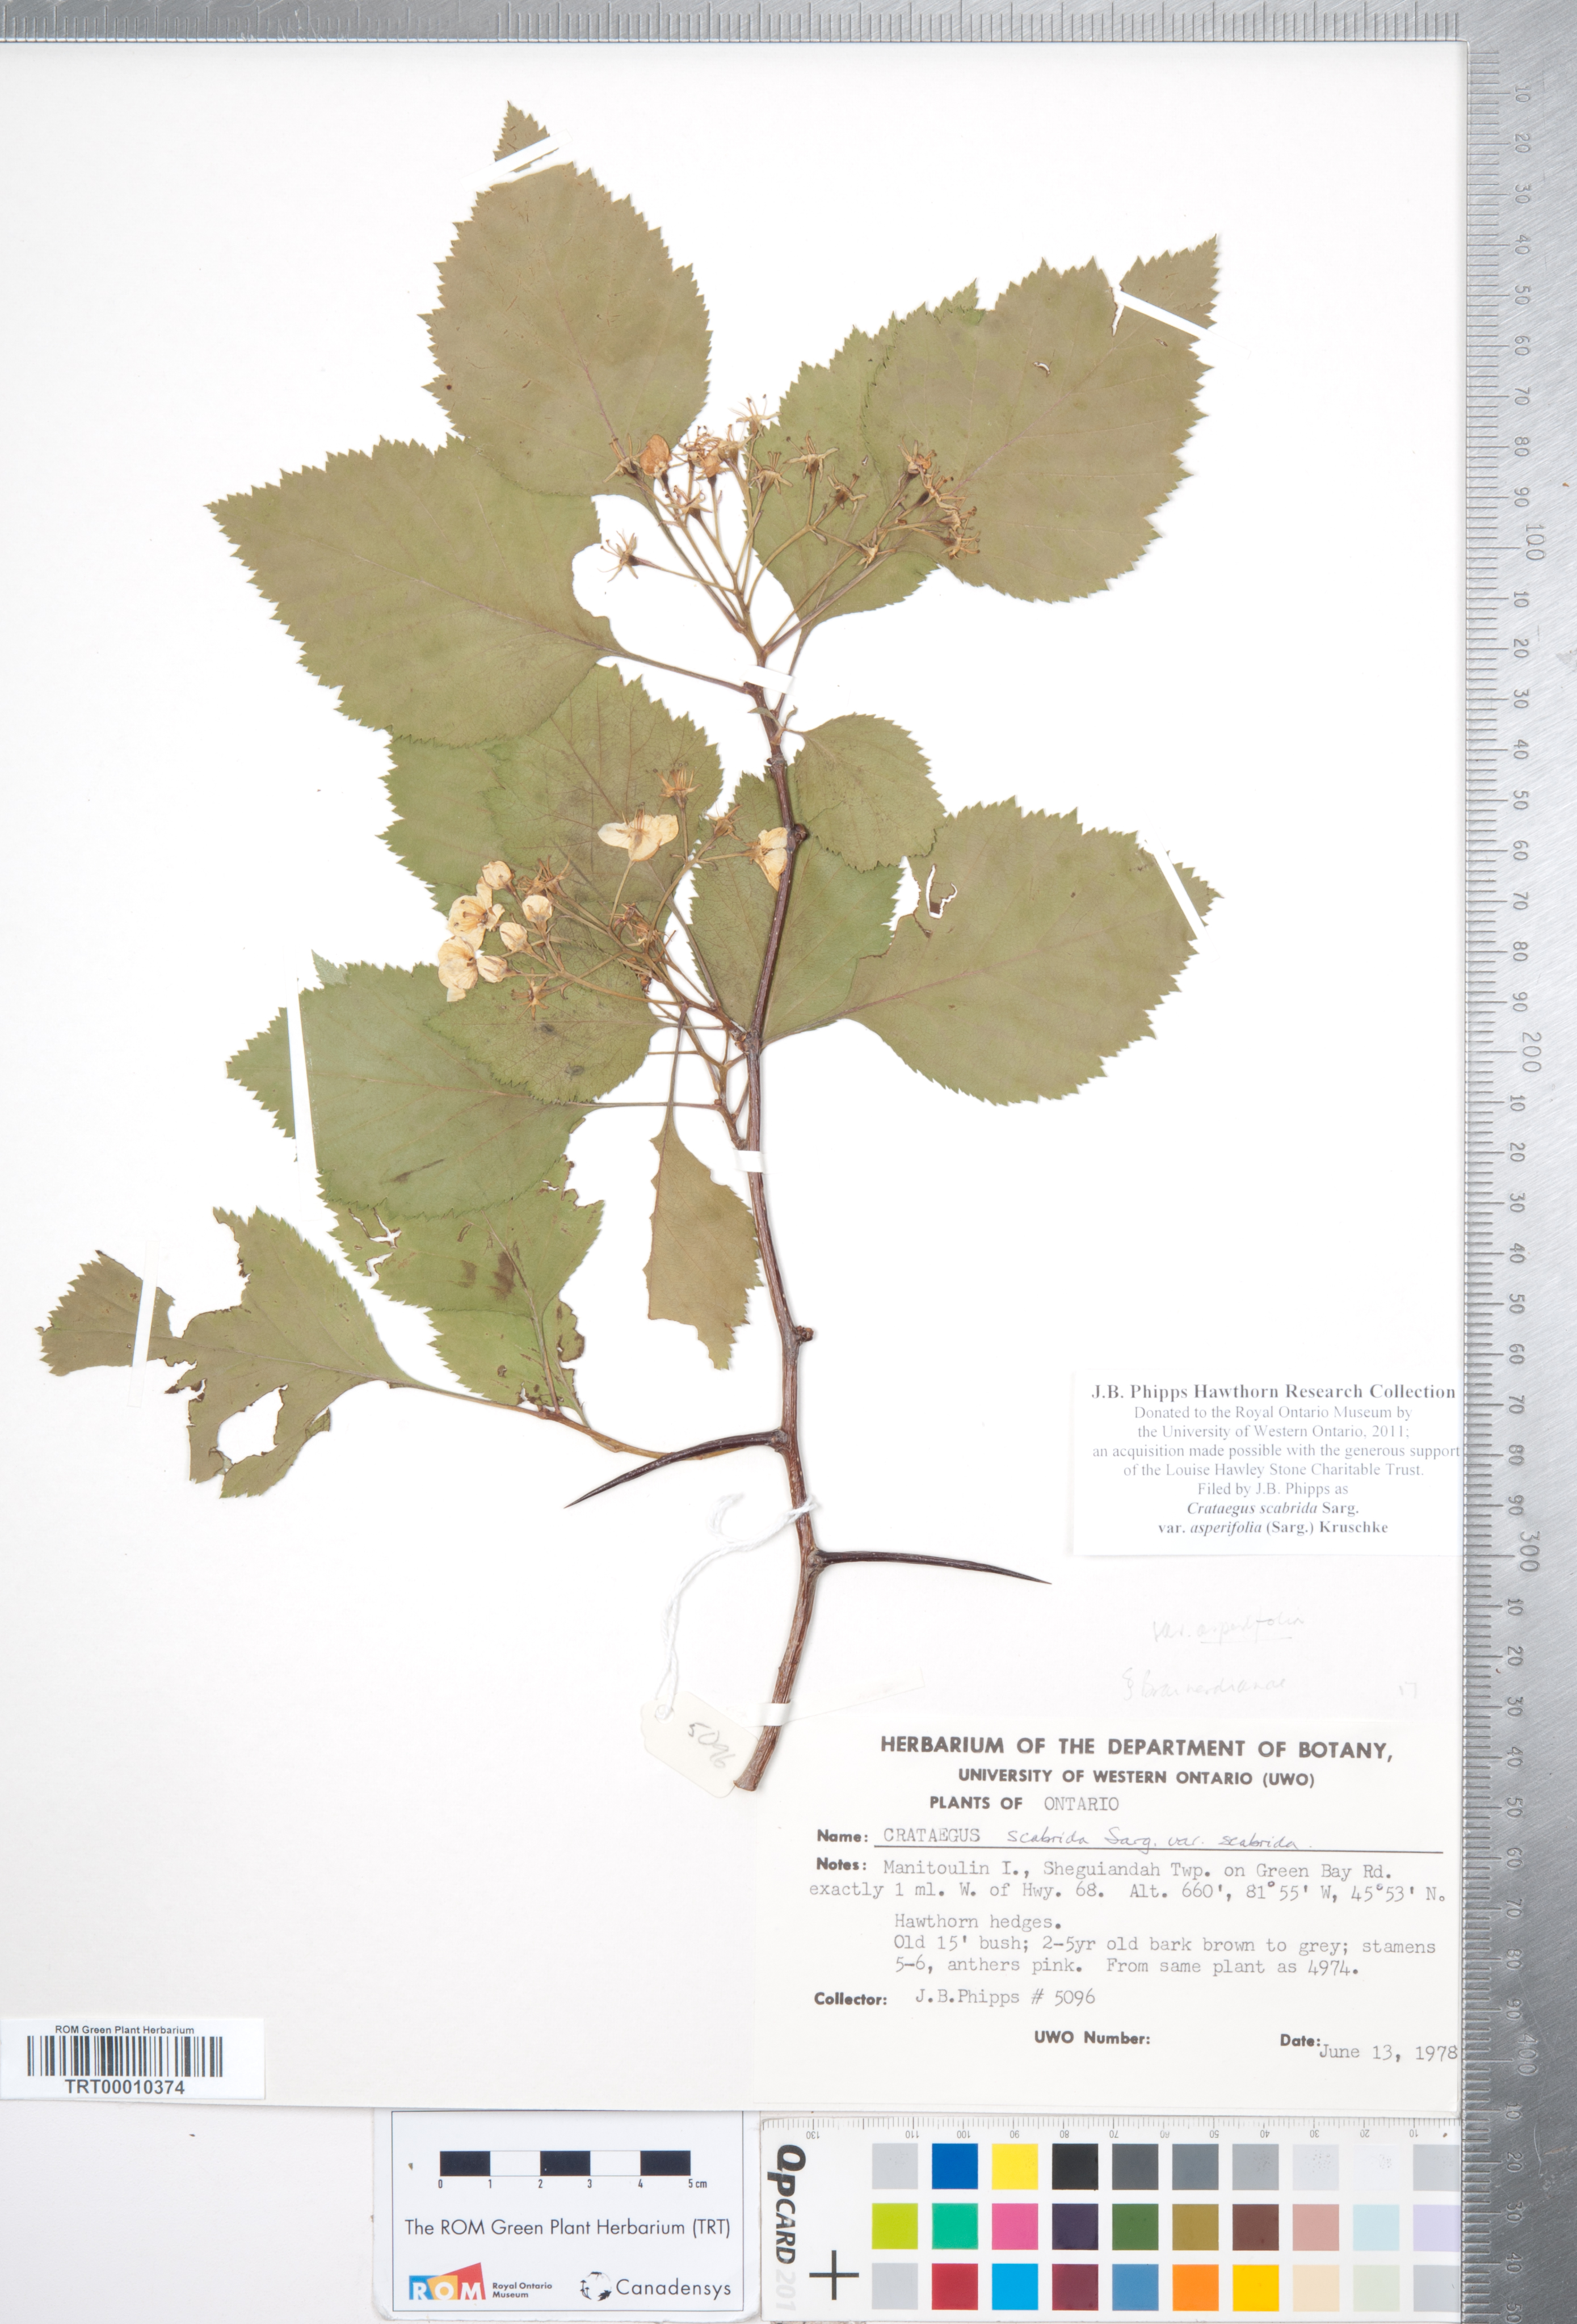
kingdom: Plantae
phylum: Tracheophyta
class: Magnoliopsida
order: Rosales
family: Rosaceae
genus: Crataegus
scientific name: Crataegus scabrida
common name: Rough hawthorn
